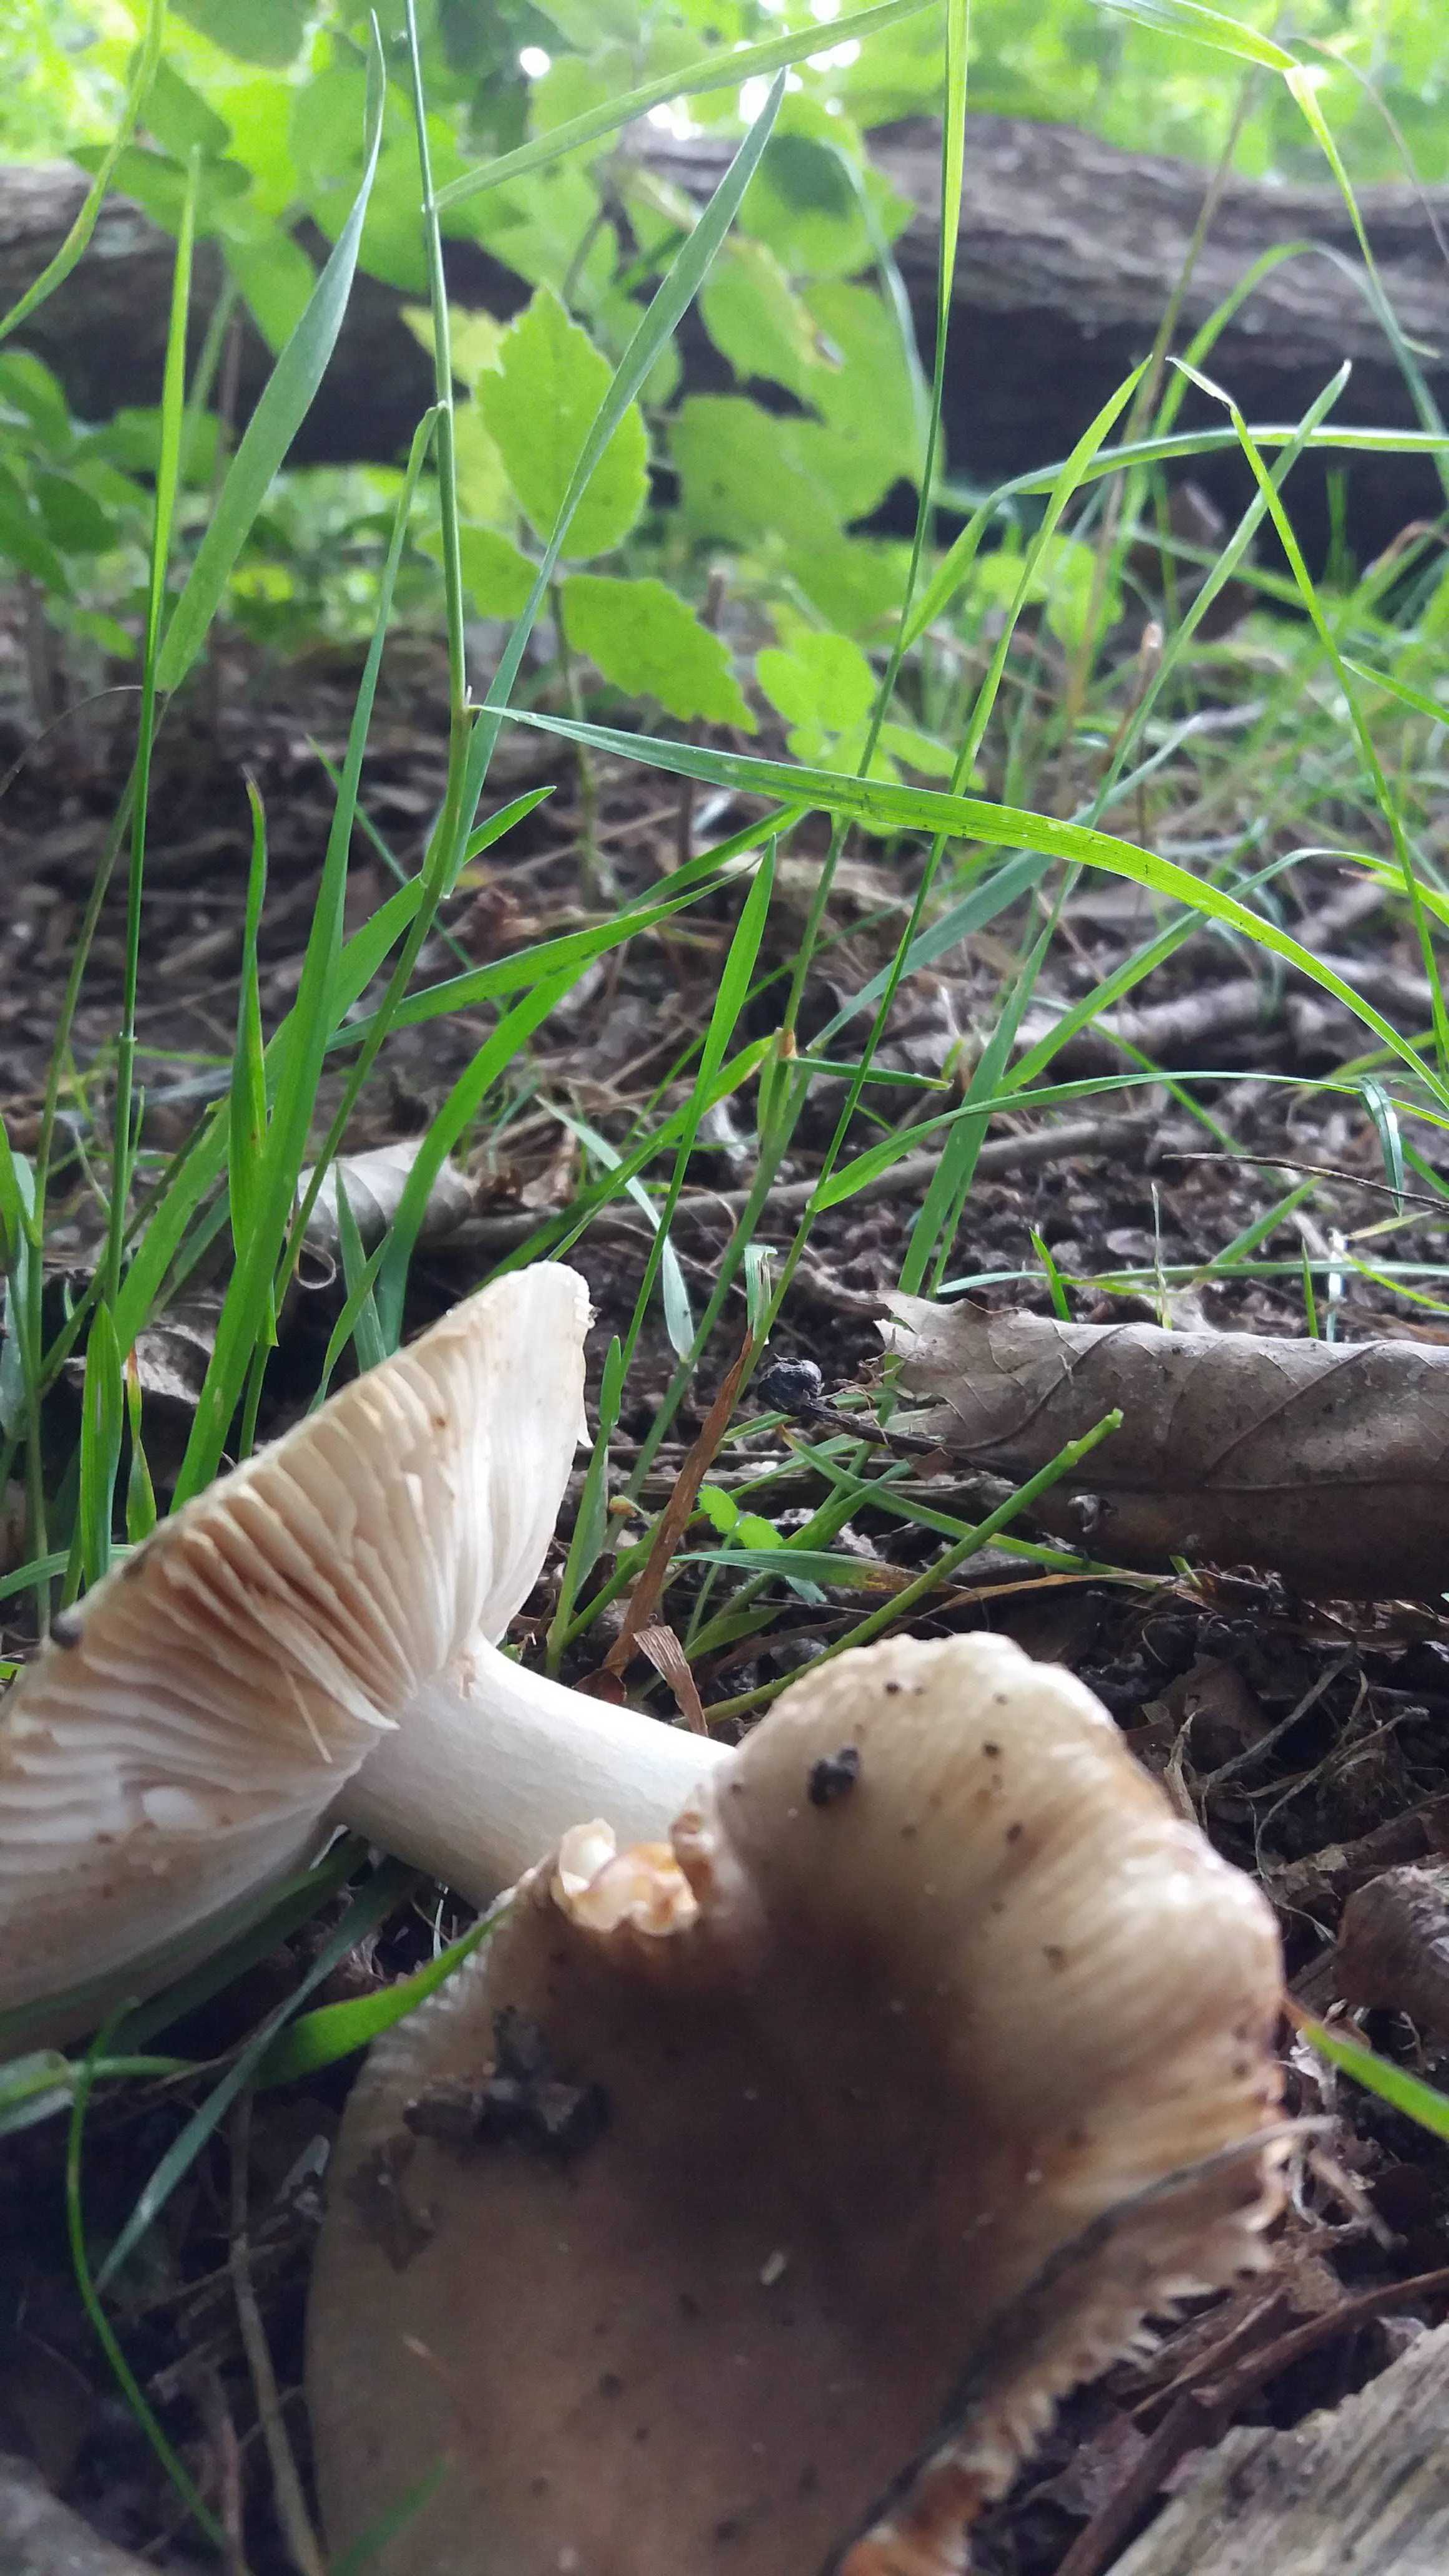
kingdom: Fungi
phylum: Basidiomycota
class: Agaricomycetes
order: Russulales
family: Russulaceae
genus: Russula
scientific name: Russula
